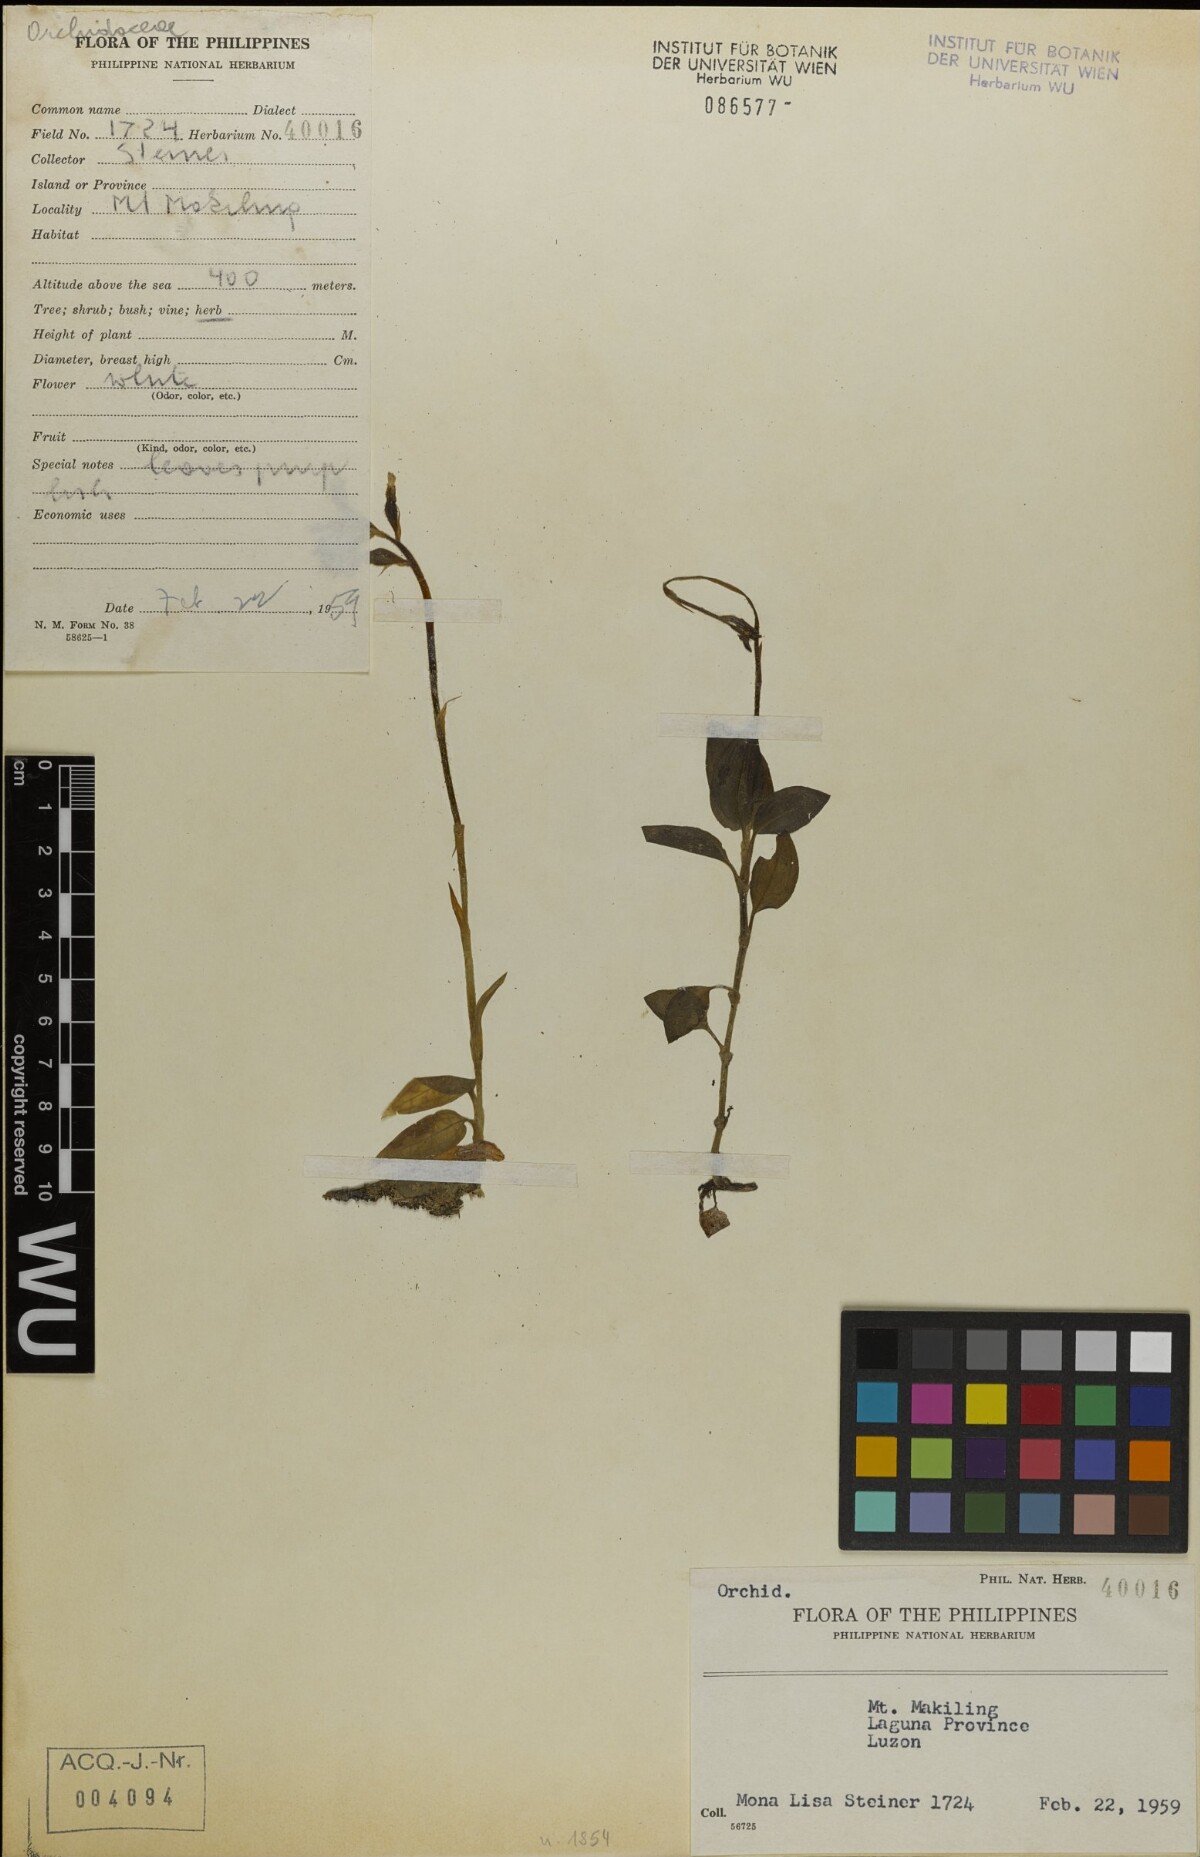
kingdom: Plantae
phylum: Tracheophyta
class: Liliopsida
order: Asparagales
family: Orchidaceae
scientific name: Orchidaceae
